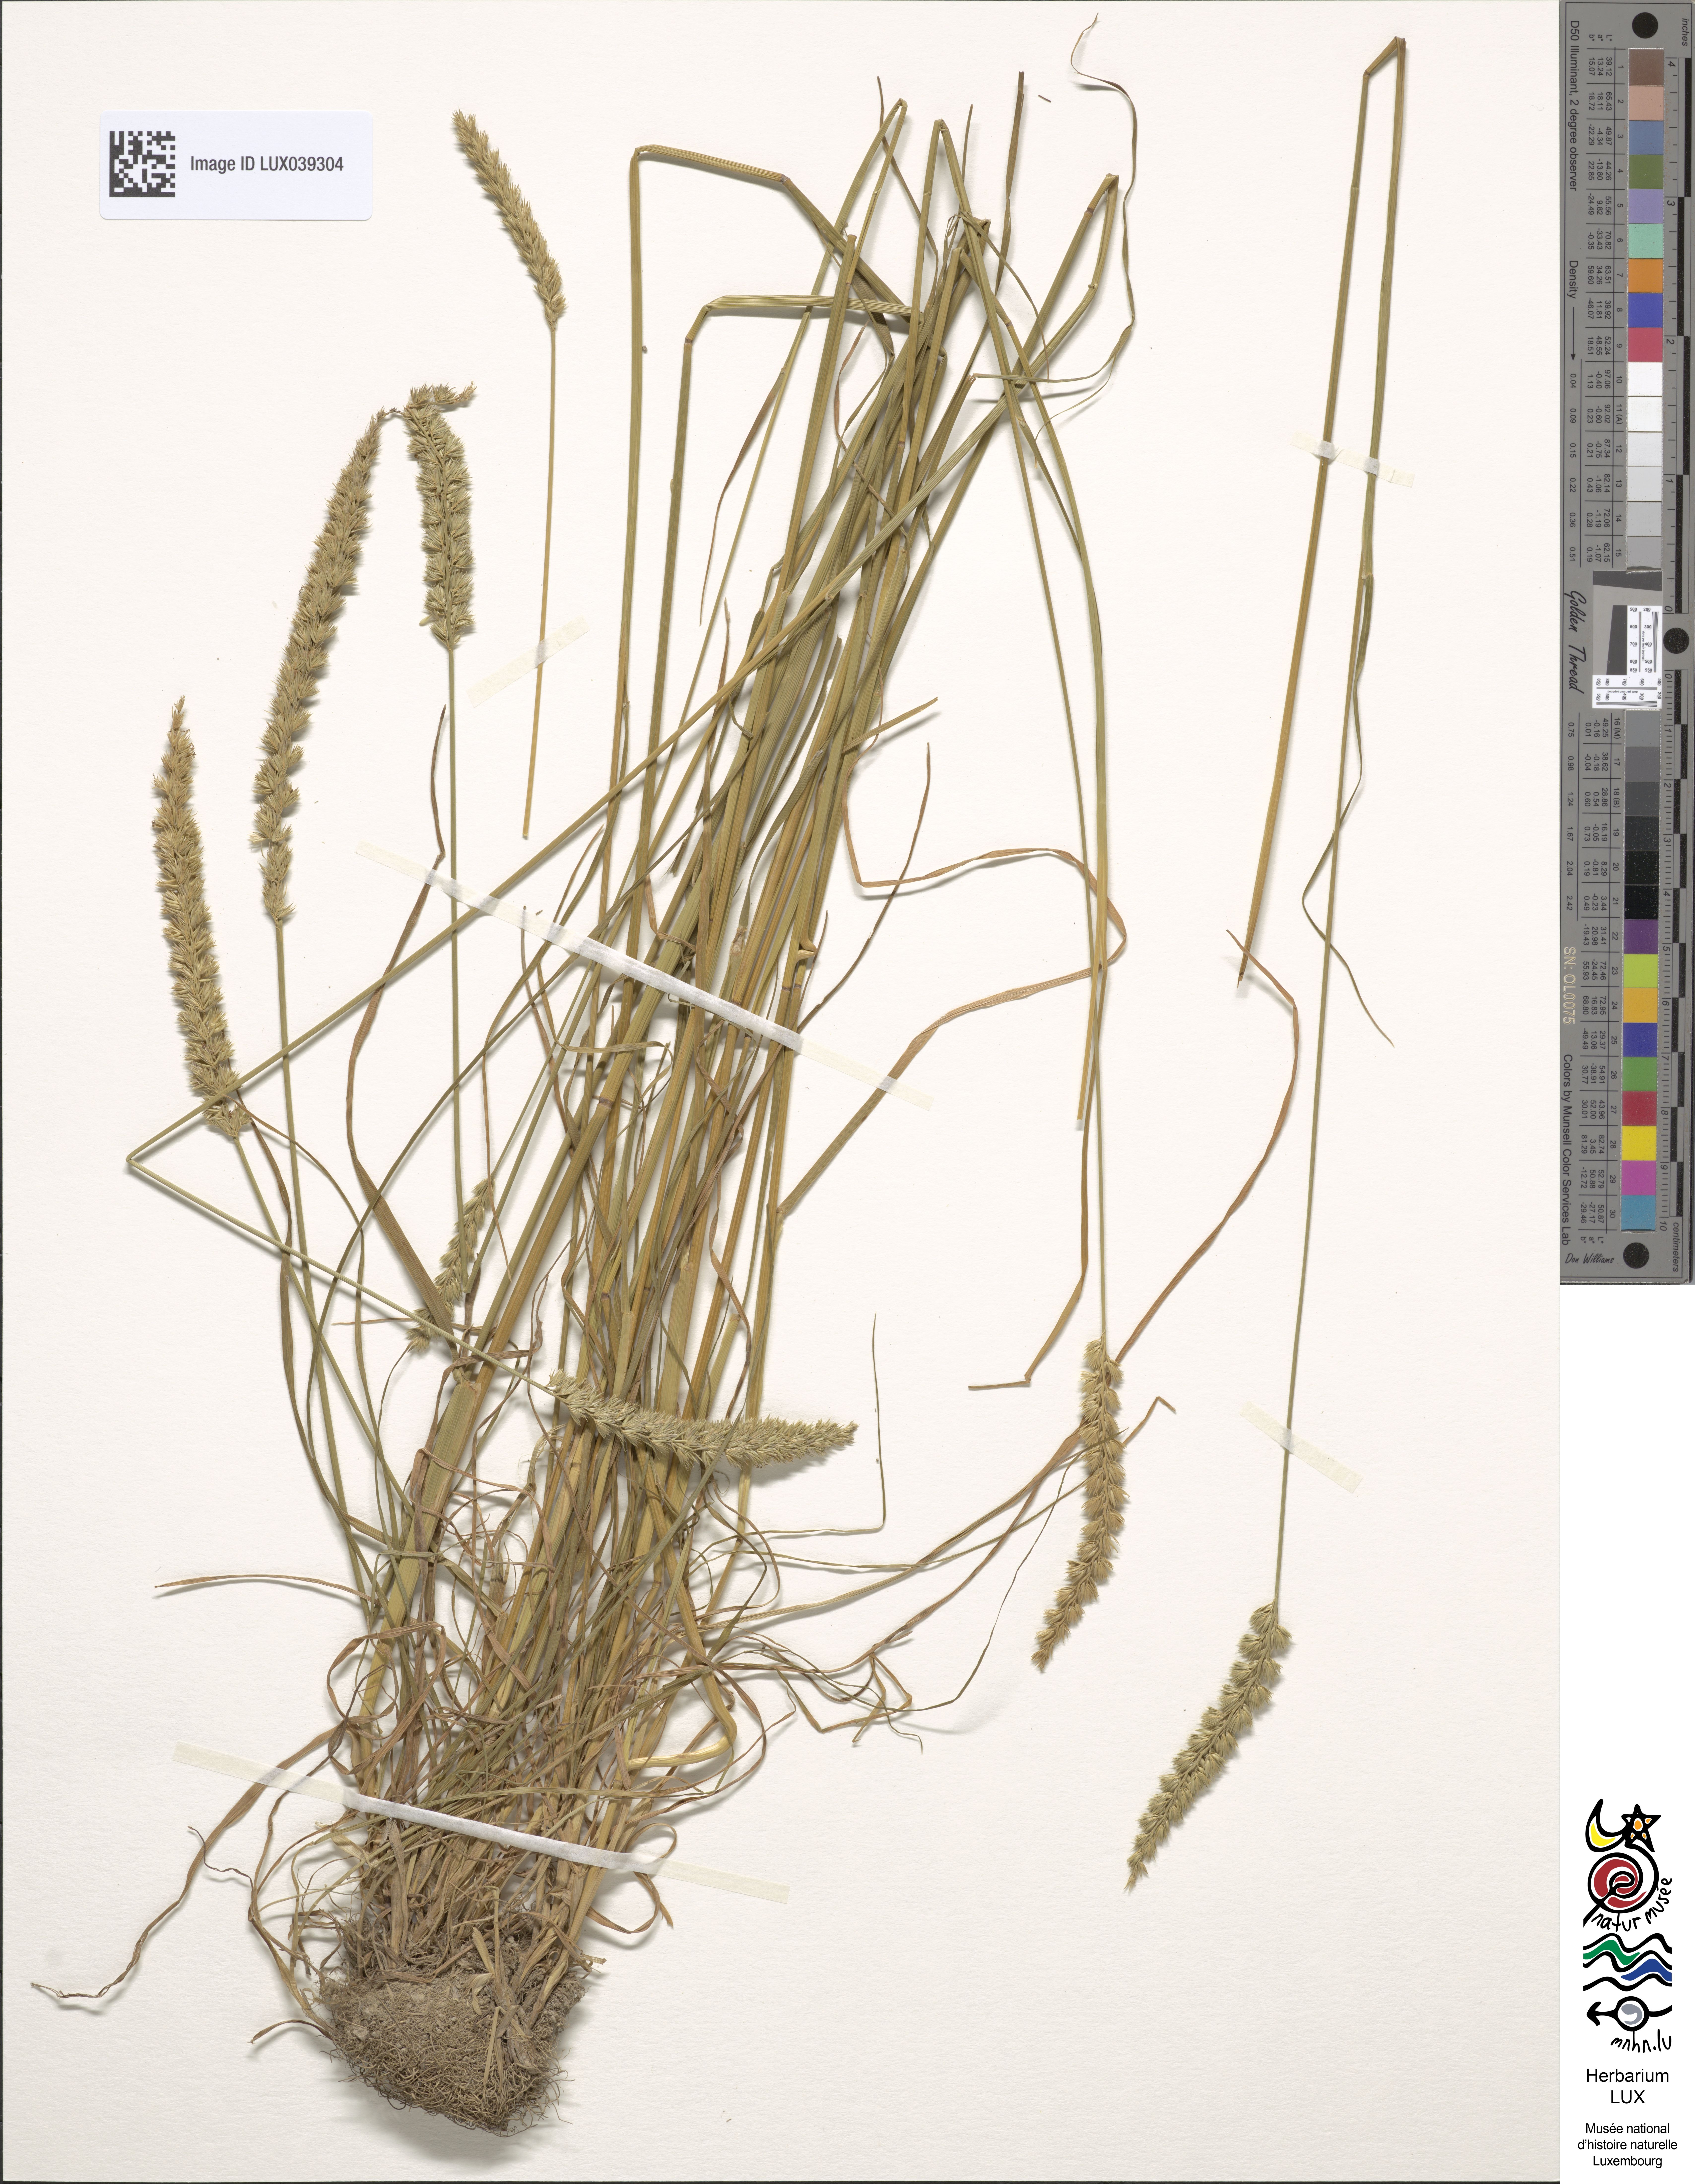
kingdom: Plantae
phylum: Tracheophyta
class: Liliopsida
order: Poales
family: Poaceae
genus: Cynosurus
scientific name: Cynosurus cristatus
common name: Crested dog's-tail
